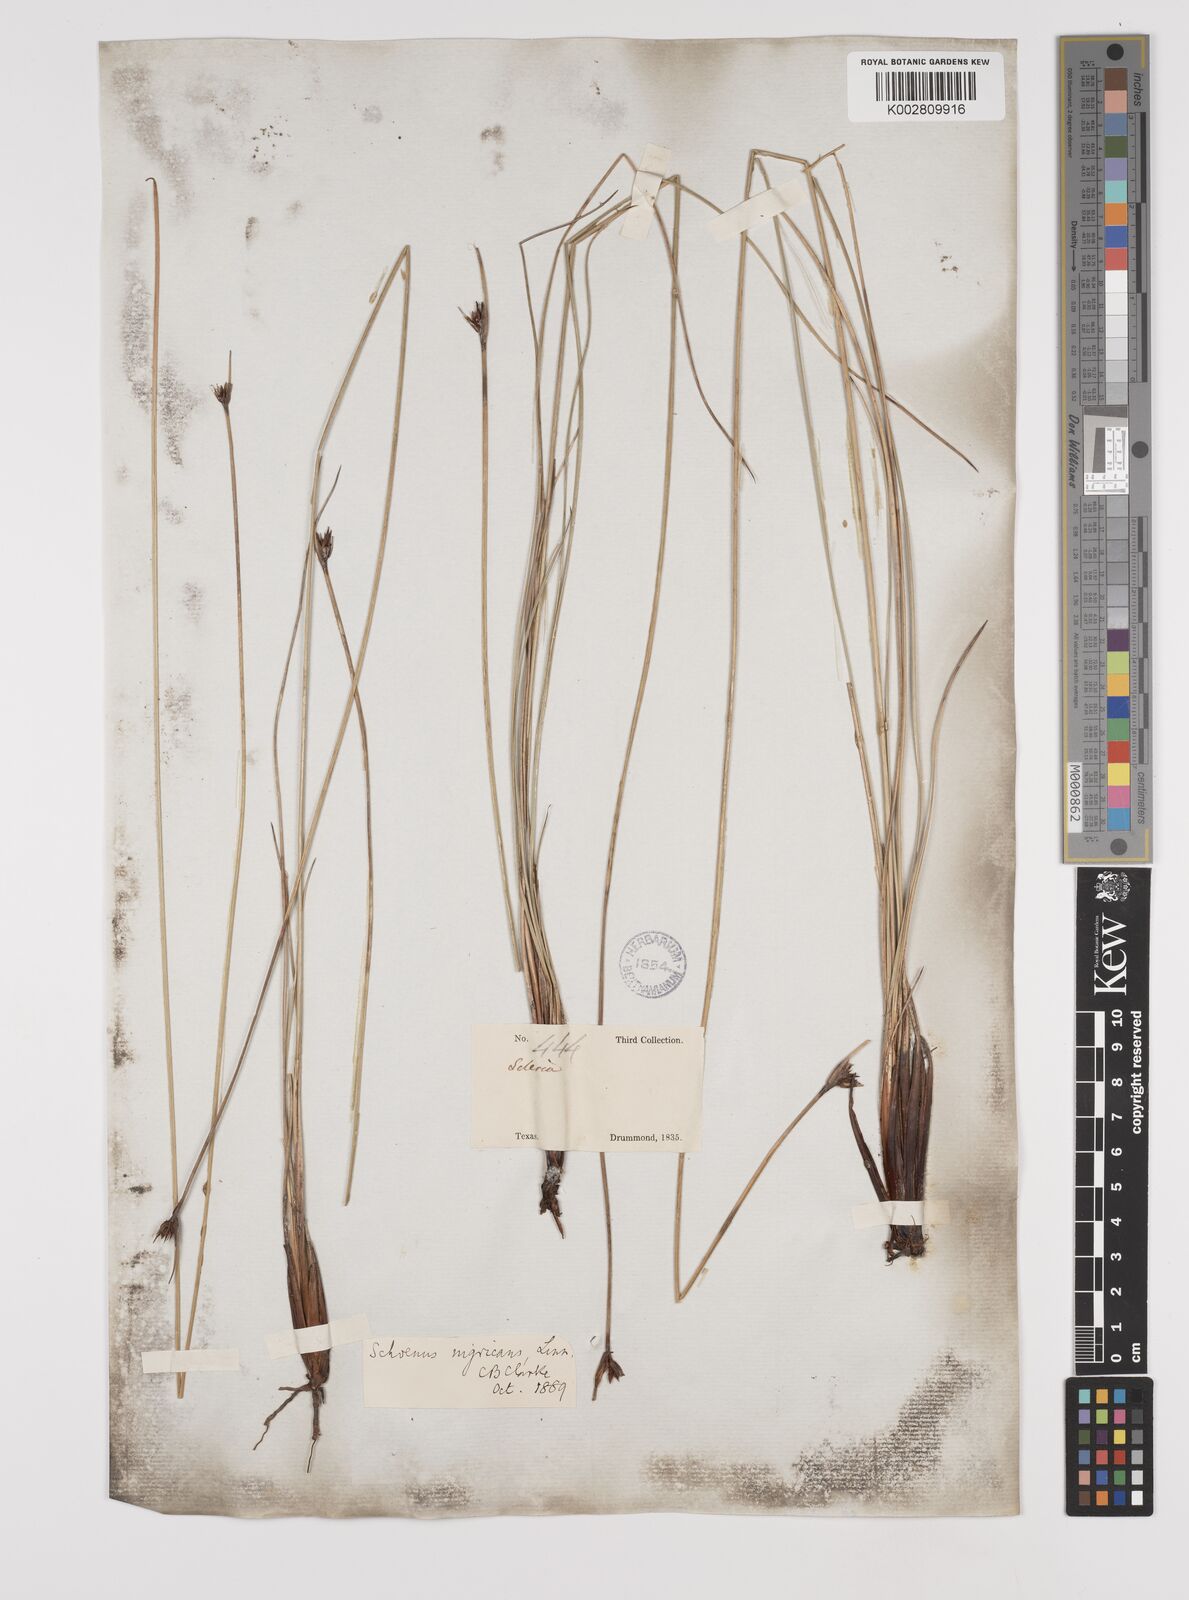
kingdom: Plantae
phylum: Tracheophyta
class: Liliopsida
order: Poales
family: Cyperaceae
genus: Schoenus
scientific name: Schoenus nigricans
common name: Black bog-rush
